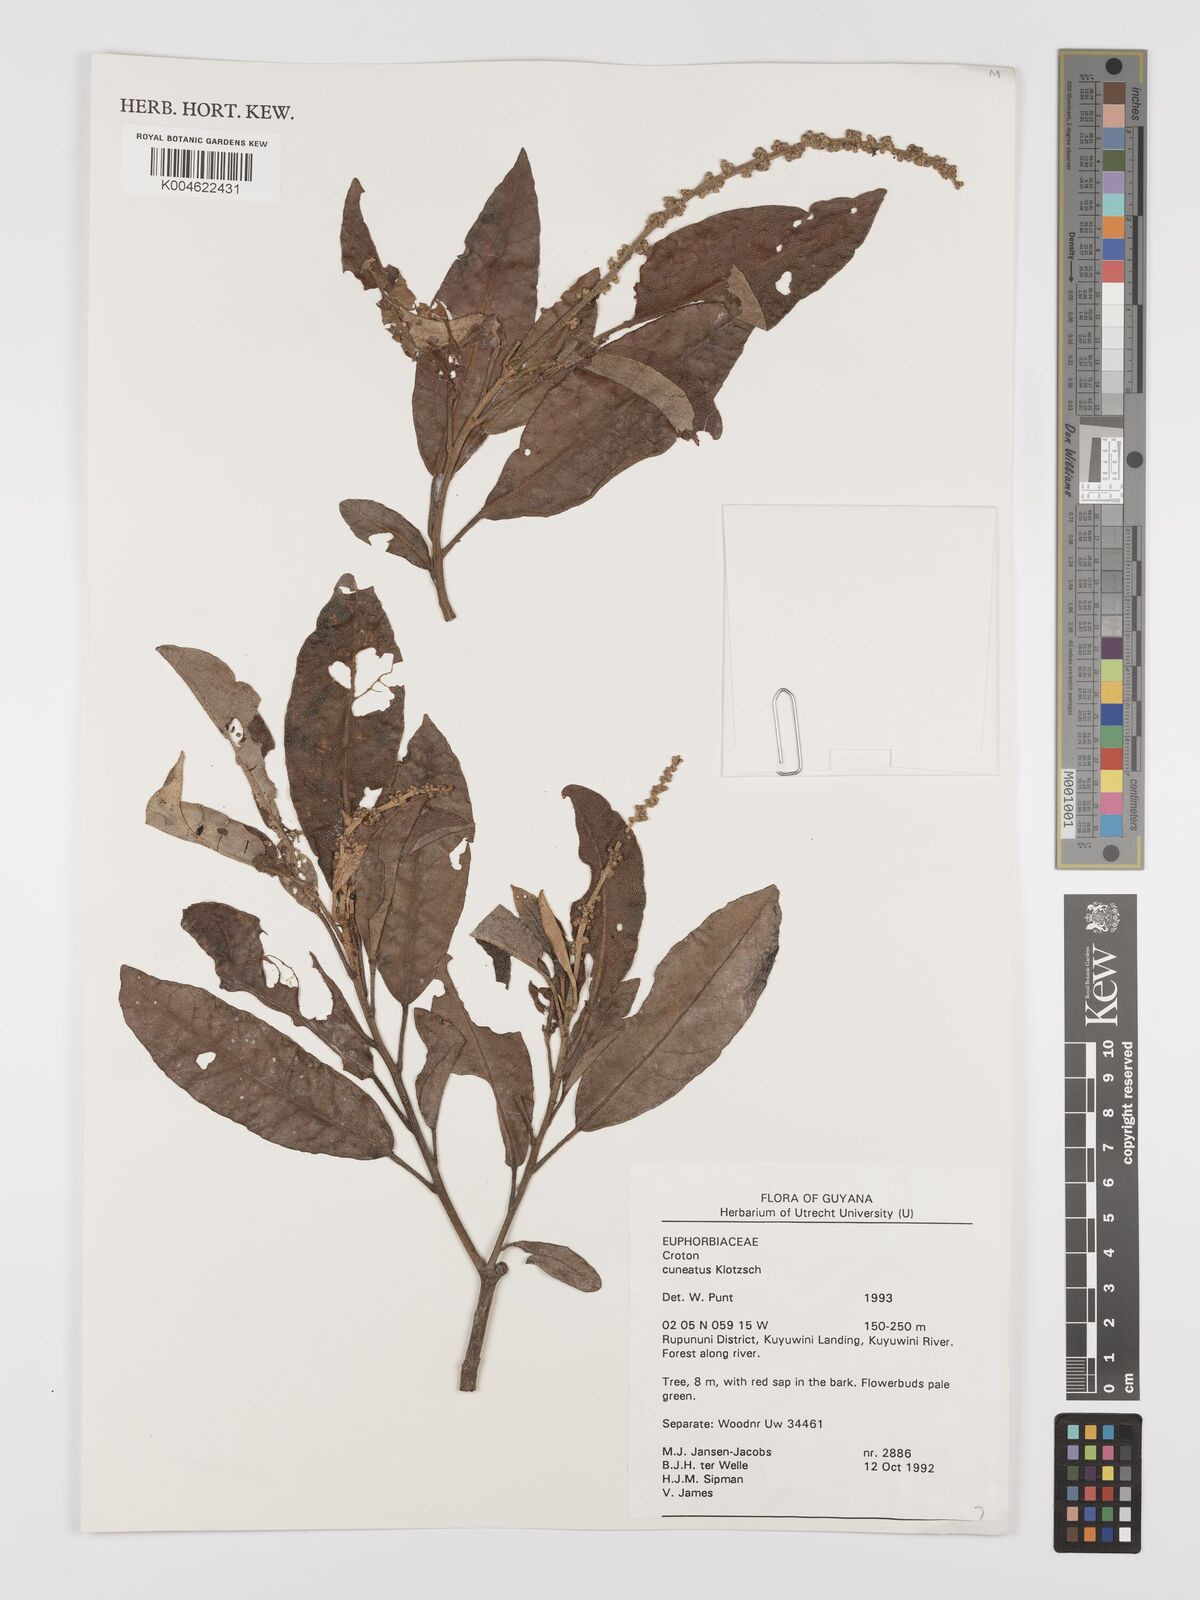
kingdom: Plantae
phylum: Tracheophyta
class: Magnoliopsida
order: Malpighiales
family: Euphorbiaceae
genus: Croton
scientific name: Croton
